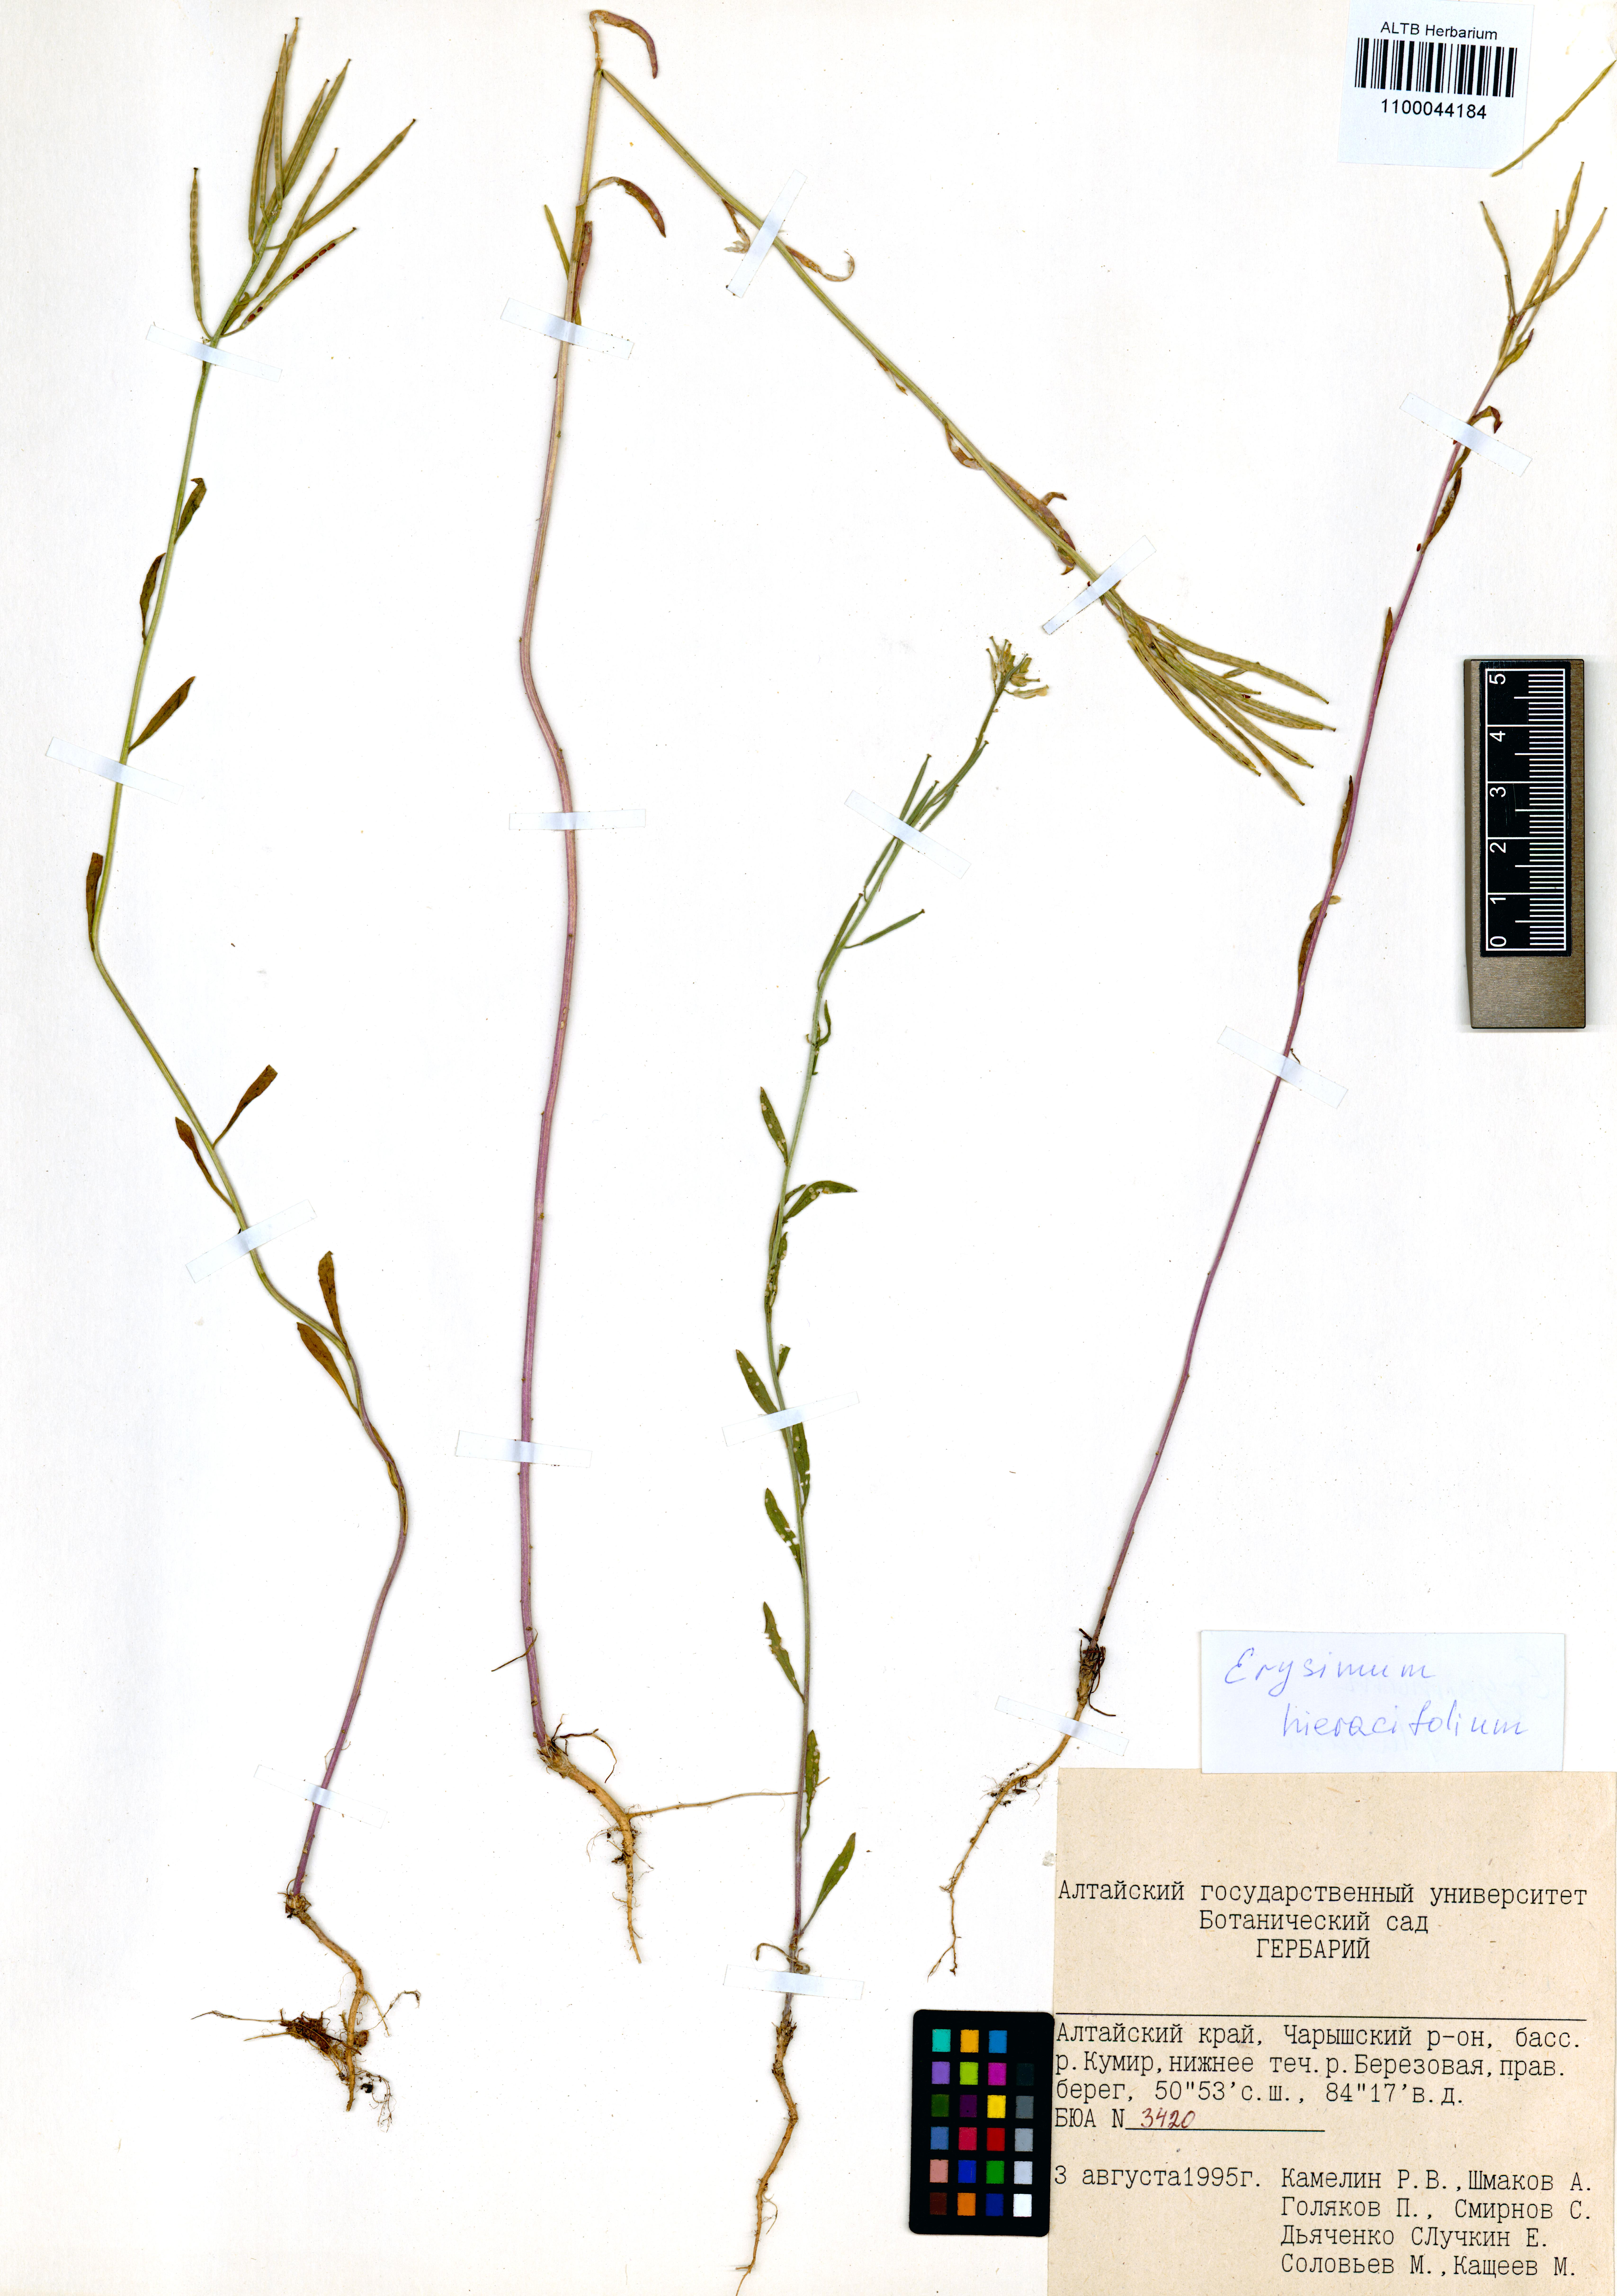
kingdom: Plantae
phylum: Tracheophyta
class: Magnoliopsida
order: Brassicales
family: Brassicaceae
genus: Erysimum
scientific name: Erysimum hieraciifolium
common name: European wallflower
